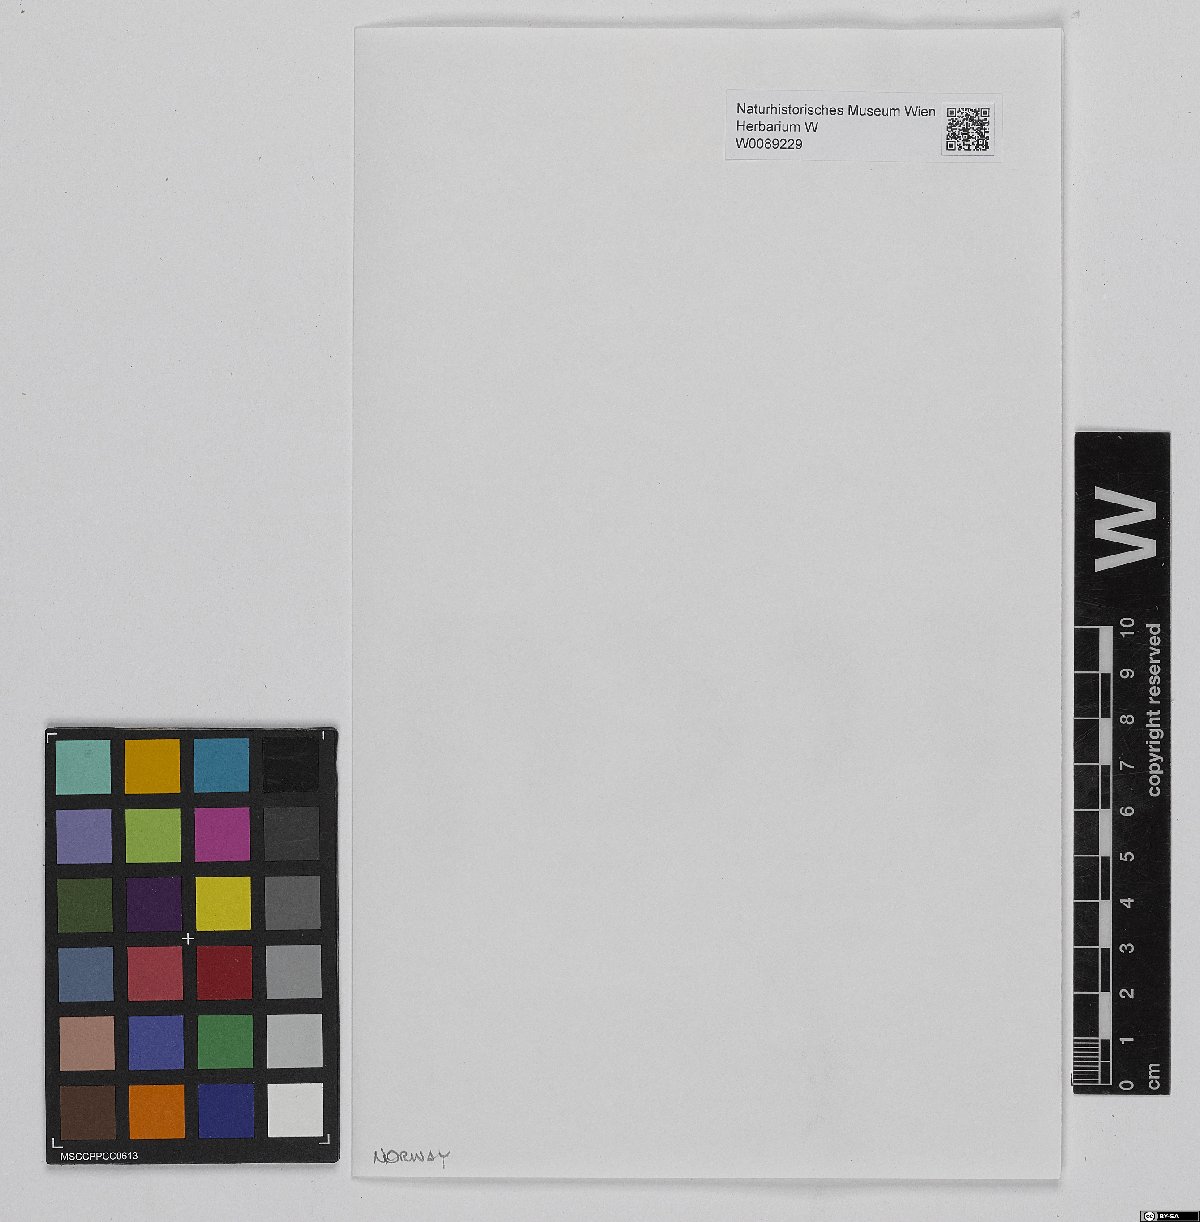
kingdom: Plantae
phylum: Bryophyta
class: Sphagnopsida
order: Sphagnales
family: Sphagnaceae
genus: Sphagnum
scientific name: Sphagnum lindbergii
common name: Lindberg's peat moss
